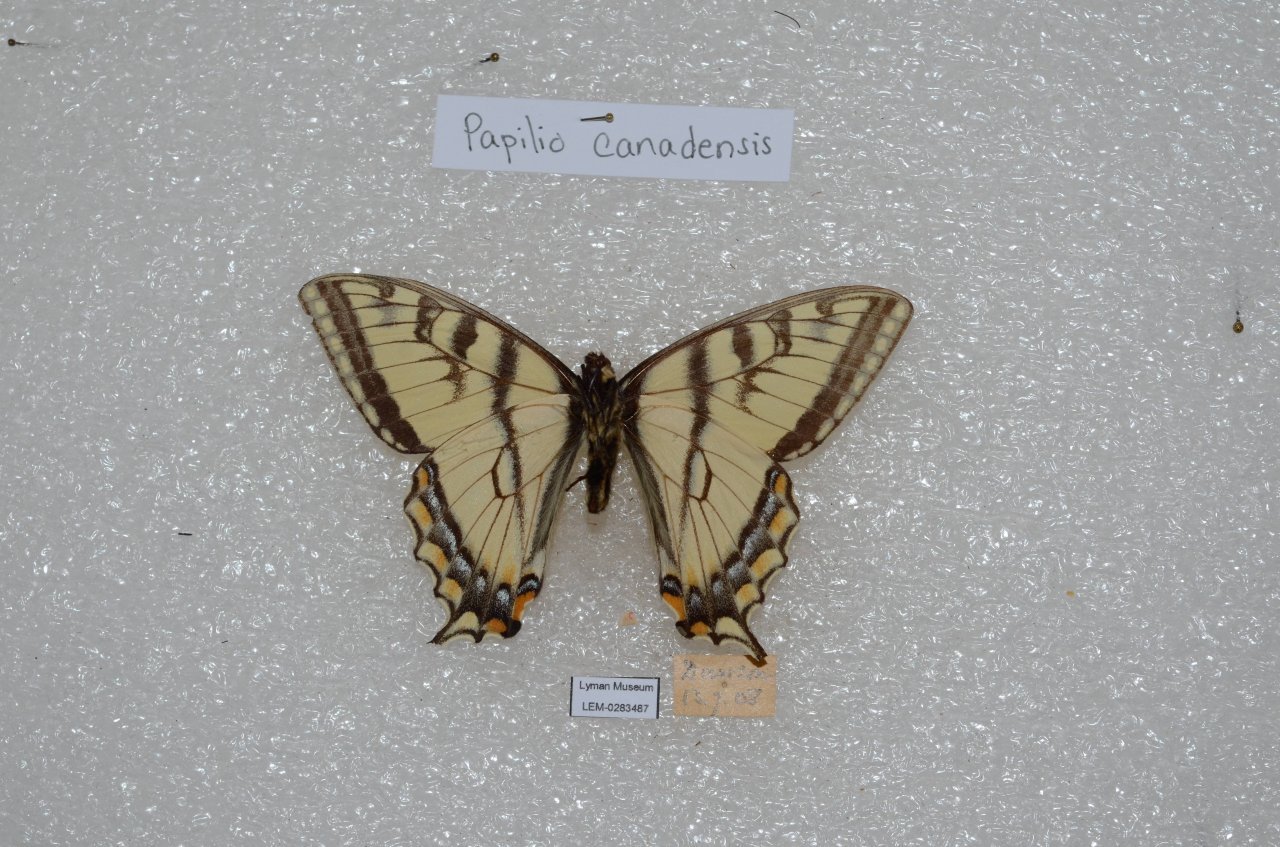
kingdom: Animalia
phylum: Arthropoda
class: Insecta
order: Lepidoptera
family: Papilionidae
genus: Pterourus
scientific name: Pterourus canadensis
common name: Canadian Tiger Swallowtail
